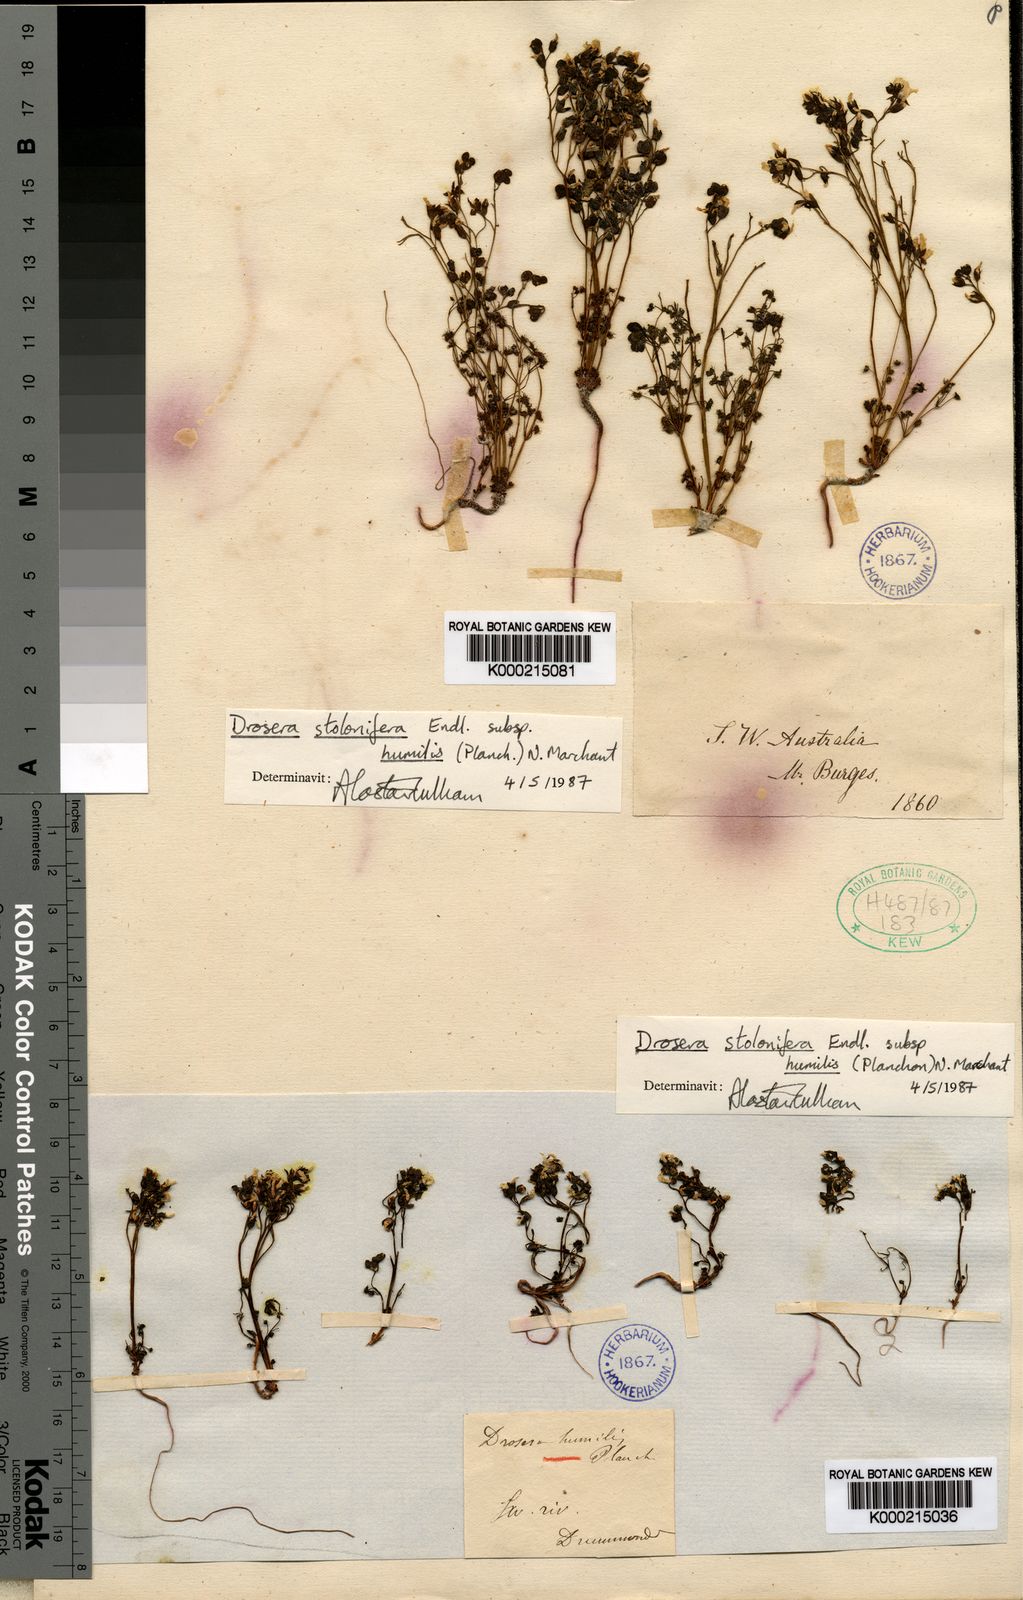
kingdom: Plantae
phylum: Tracheophyta
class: Magnoliopsida
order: Caryophyllales
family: Droseraceae
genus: Drosera
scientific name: Drosera stolonifera
